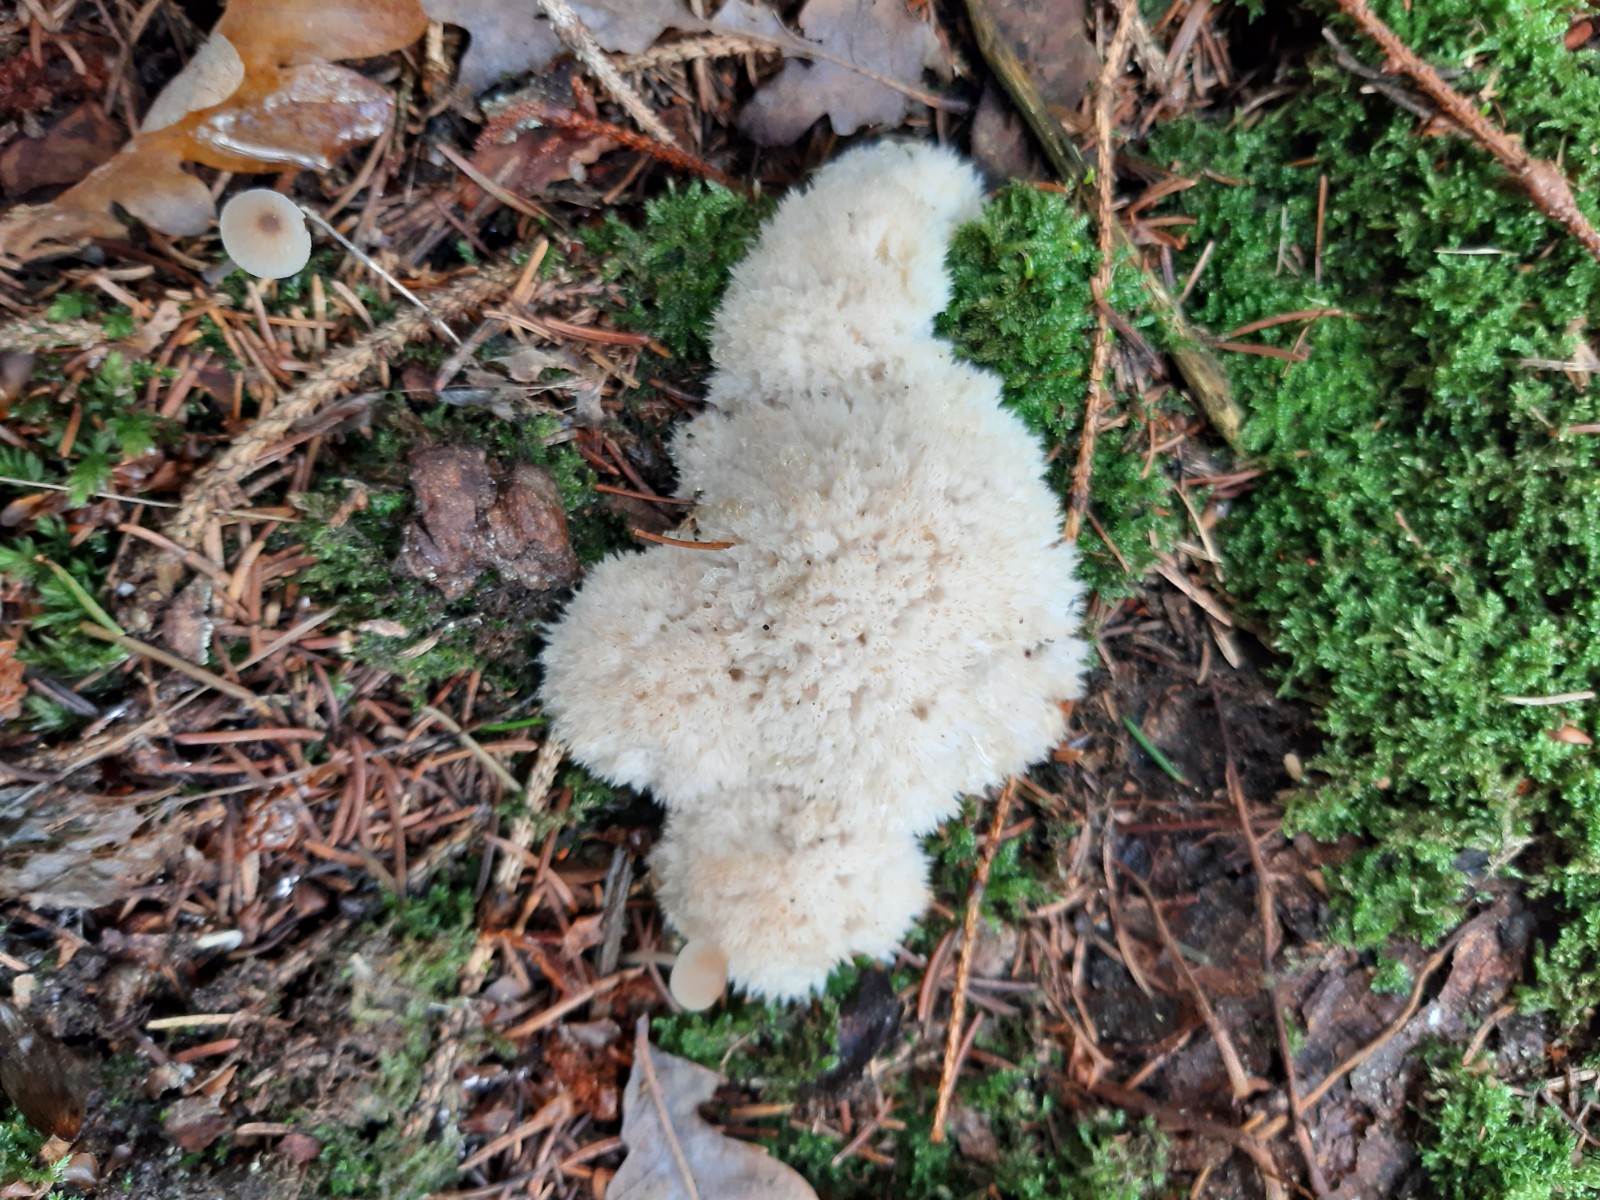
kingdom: Fungi
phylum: Basidiomycota
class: Agaricomycetes
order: Polyporales
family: Dacryobolaceae
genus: Postia
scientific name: Postia ptychogaster
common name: støvende kødporesvamp
